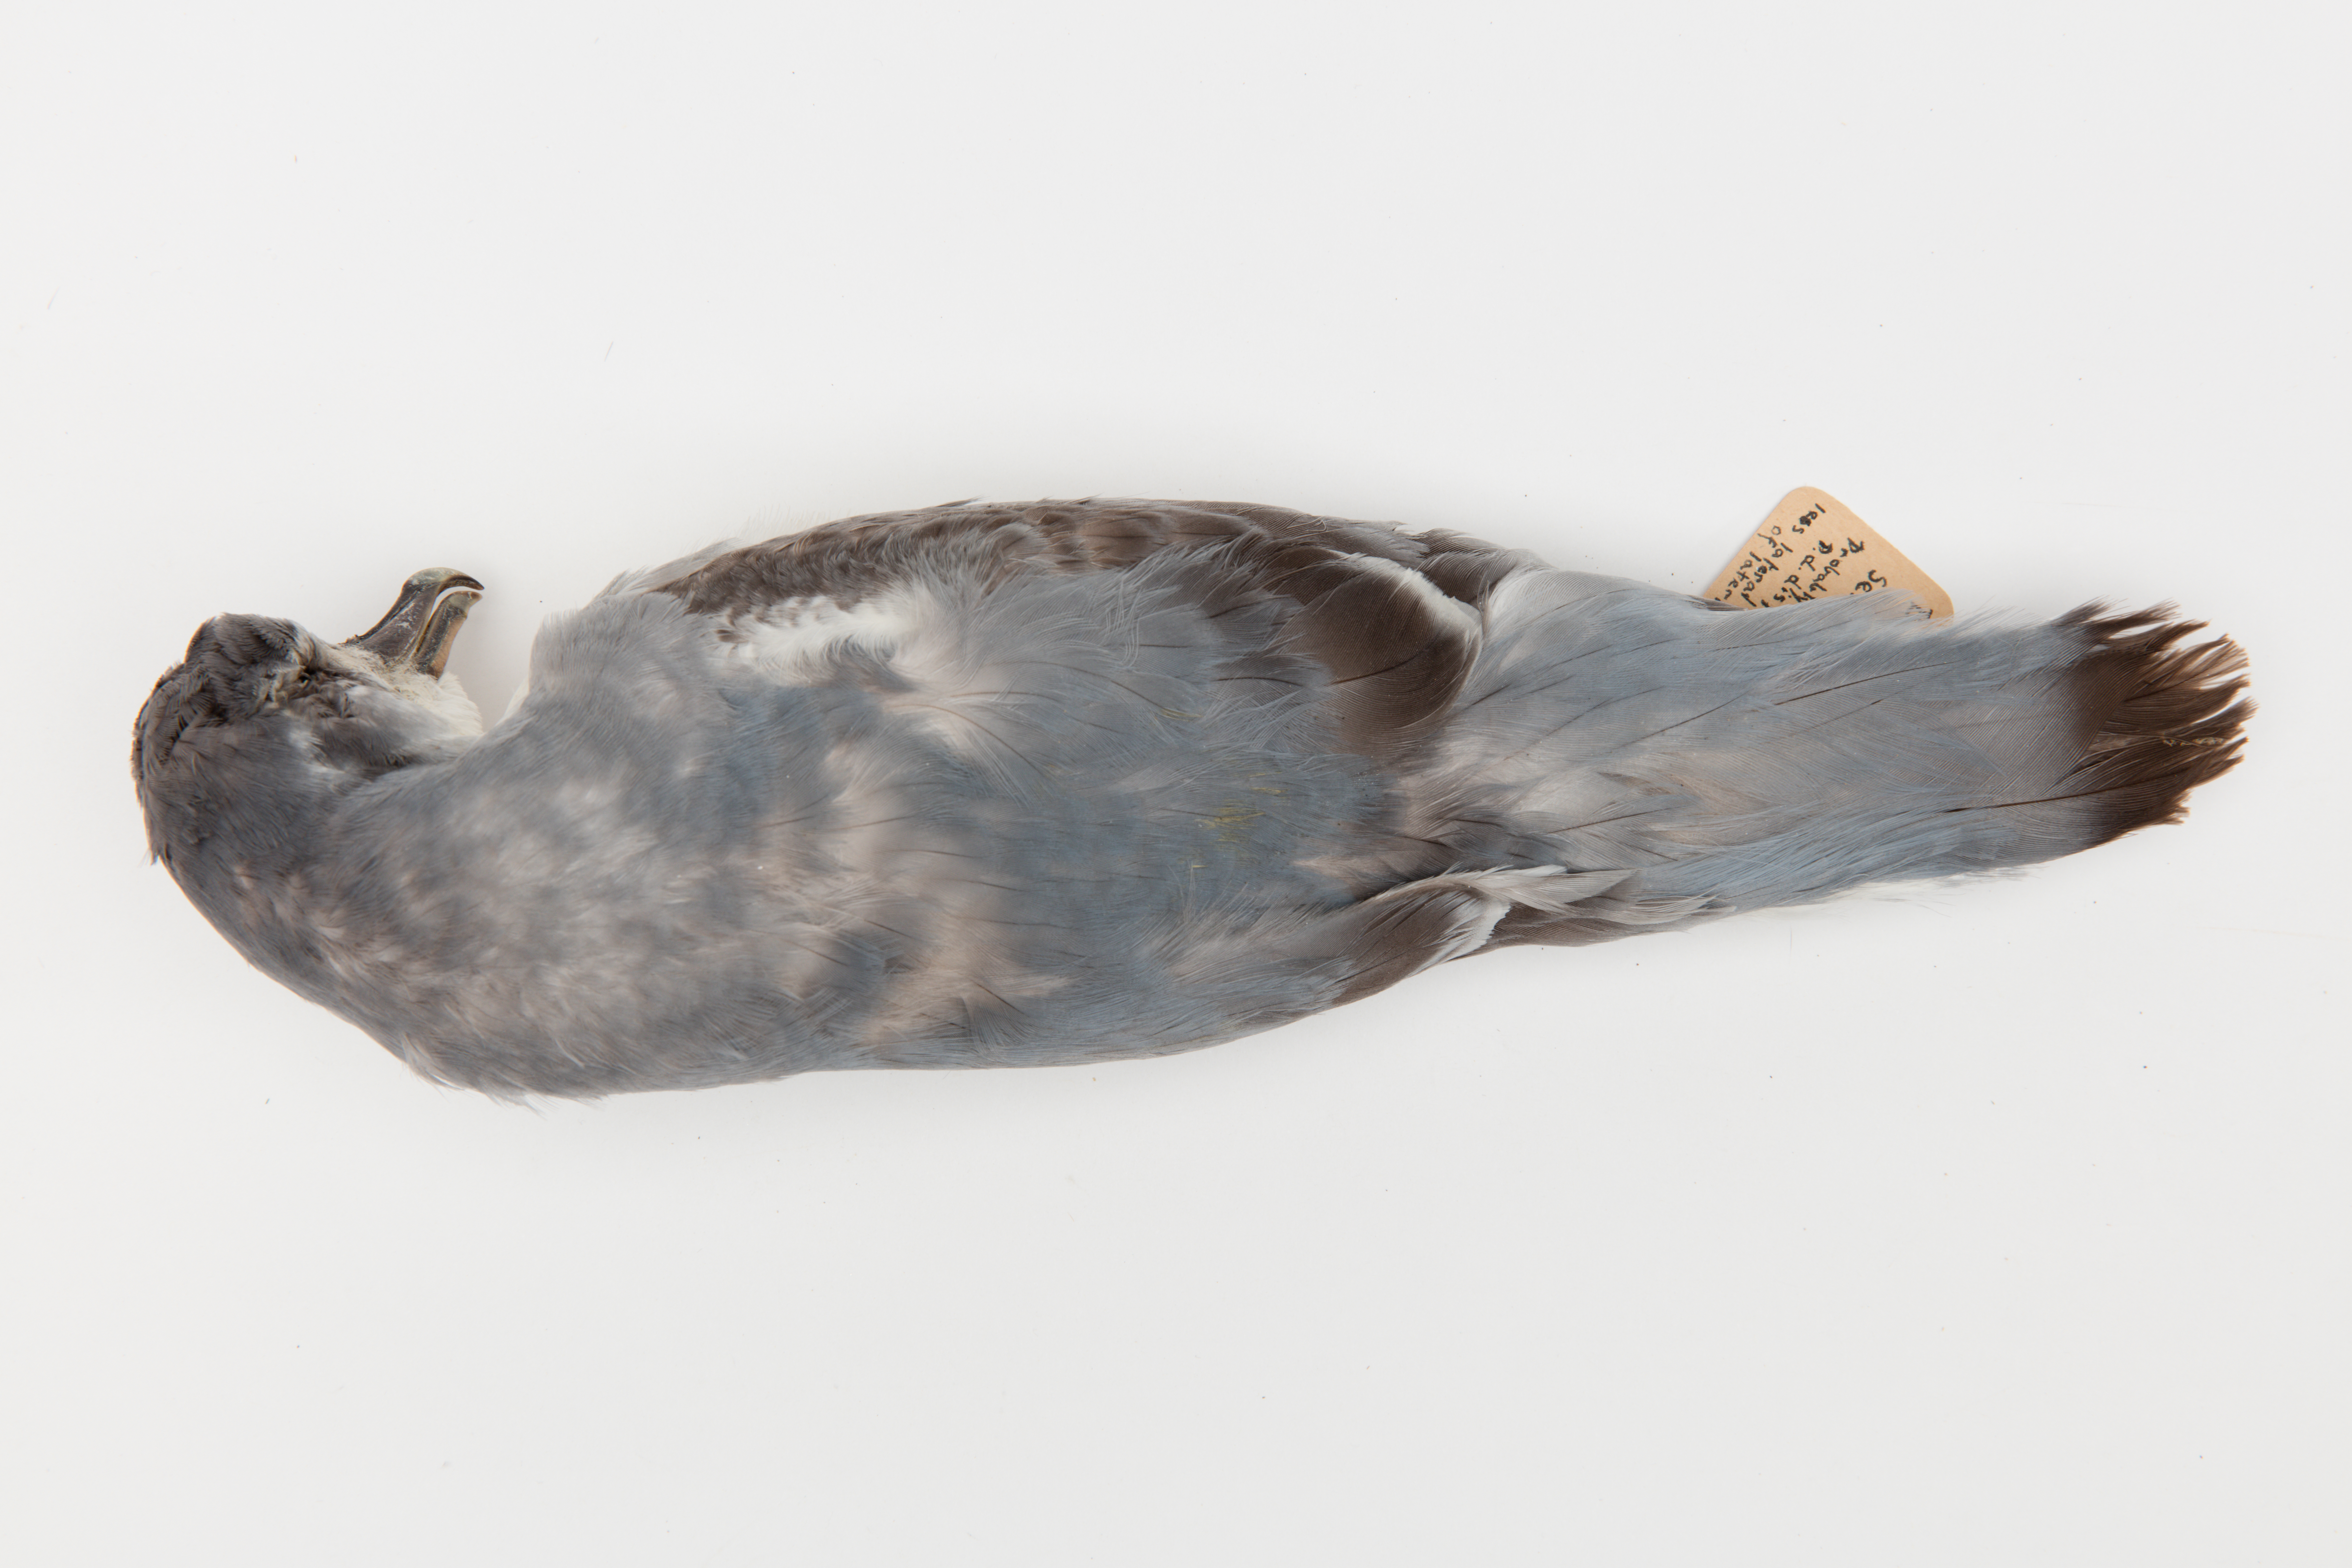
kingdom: Animalia
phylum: Chordata
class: Aves
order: Procellariiformes
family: Procellariidae
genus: Pachyptila
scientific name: Pachyptila desolata
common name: Antarctic prion
